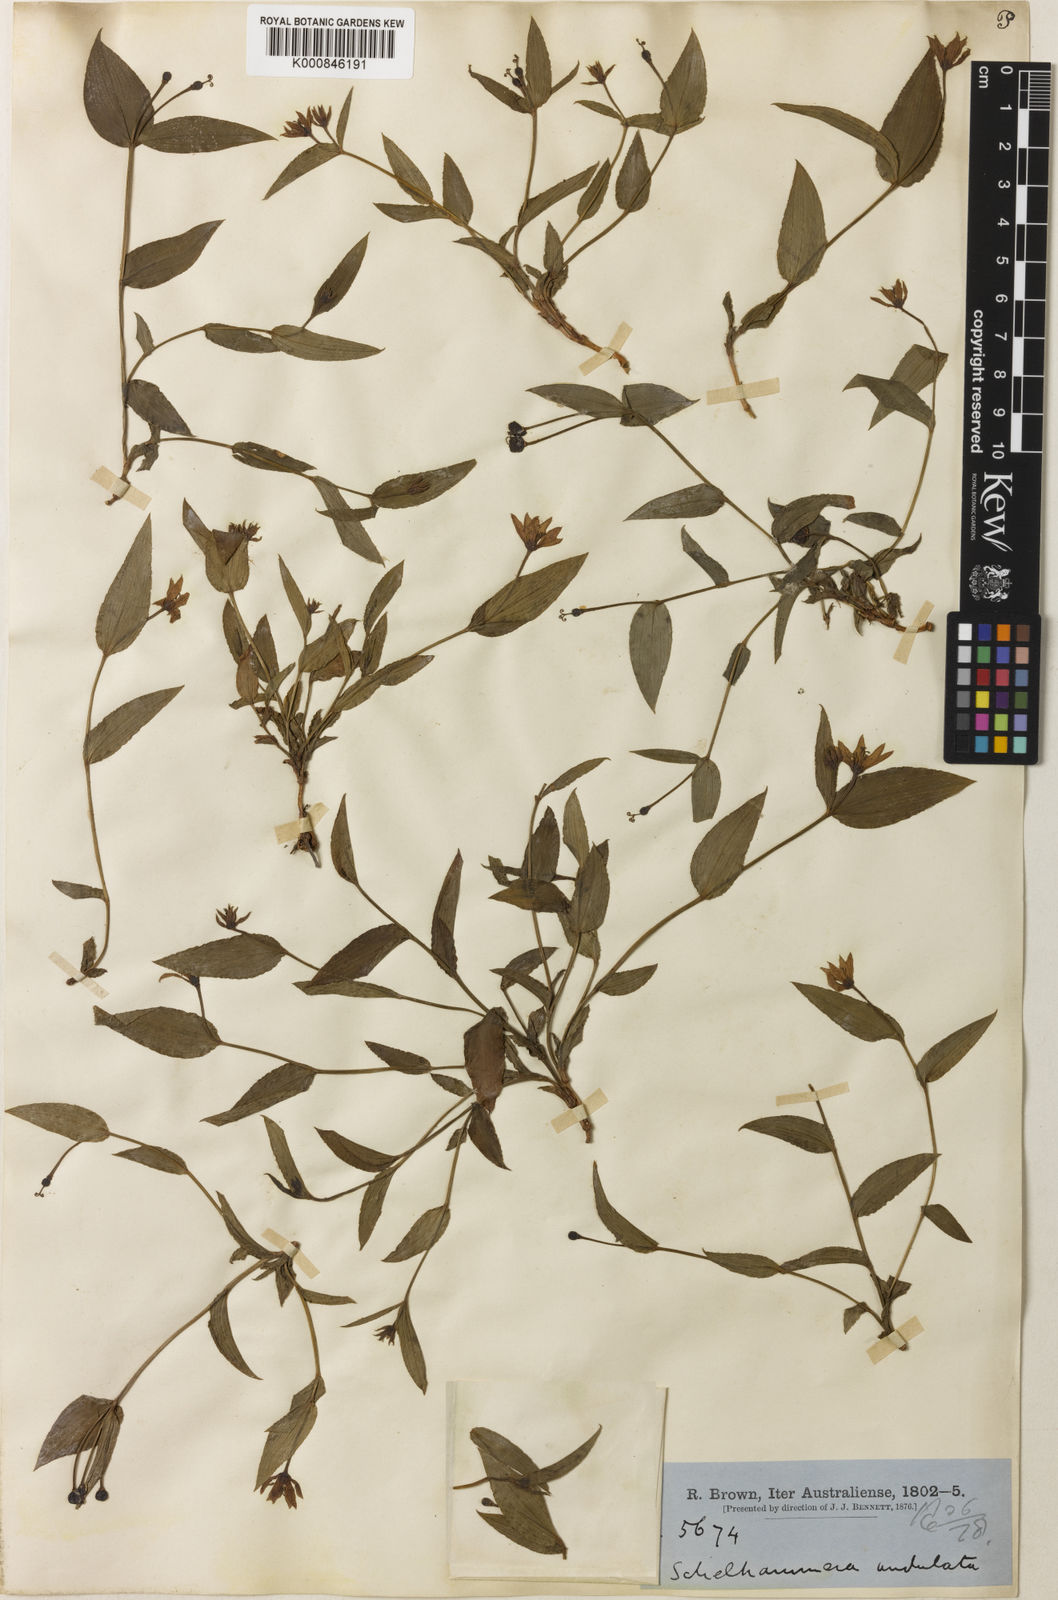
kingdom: Plantae
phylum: Tracheophyta
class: Liliopsida
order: Liliales
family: Colchicaceae
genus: Schelhammera
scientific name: Schelhammera undulata
